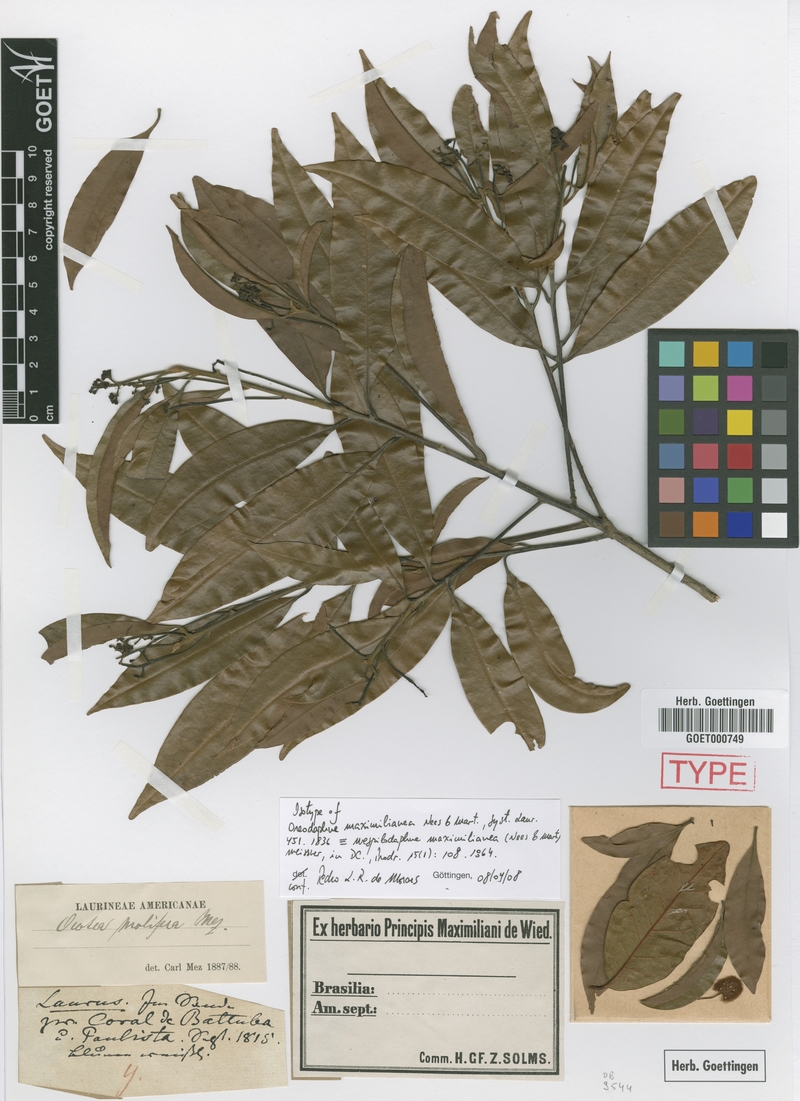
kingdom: Plantae
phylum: Tracheophyta
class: Magnoliopsida
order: Laurales
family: Lauraceae
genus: Mespilodaphne
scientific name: Mespilodaphne maximilianea
